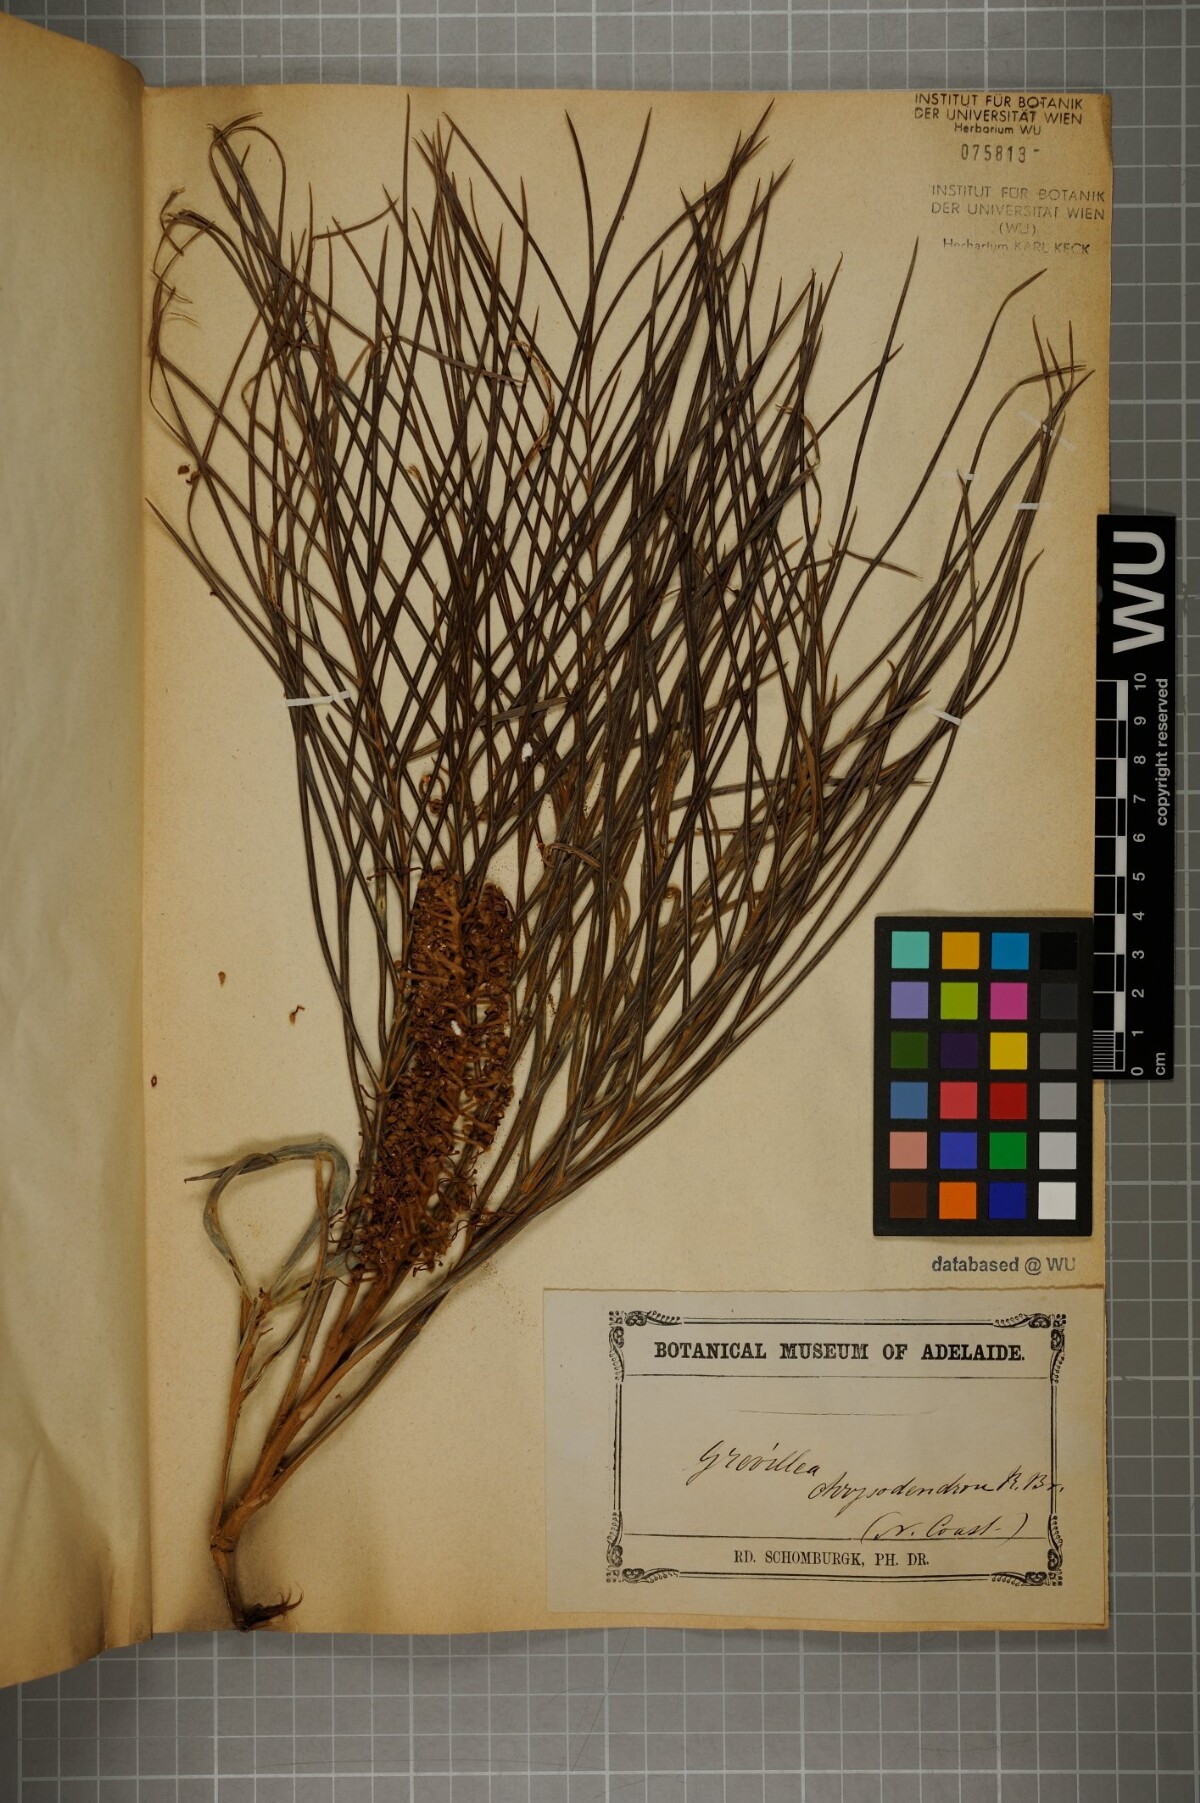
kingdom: Plantae
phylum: Tracheophyta
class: Magnoliopsida
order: Proteales
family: Proteaceae
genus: Grevillea
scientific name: Grevillea pteridifolia
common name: Golden grevillea
